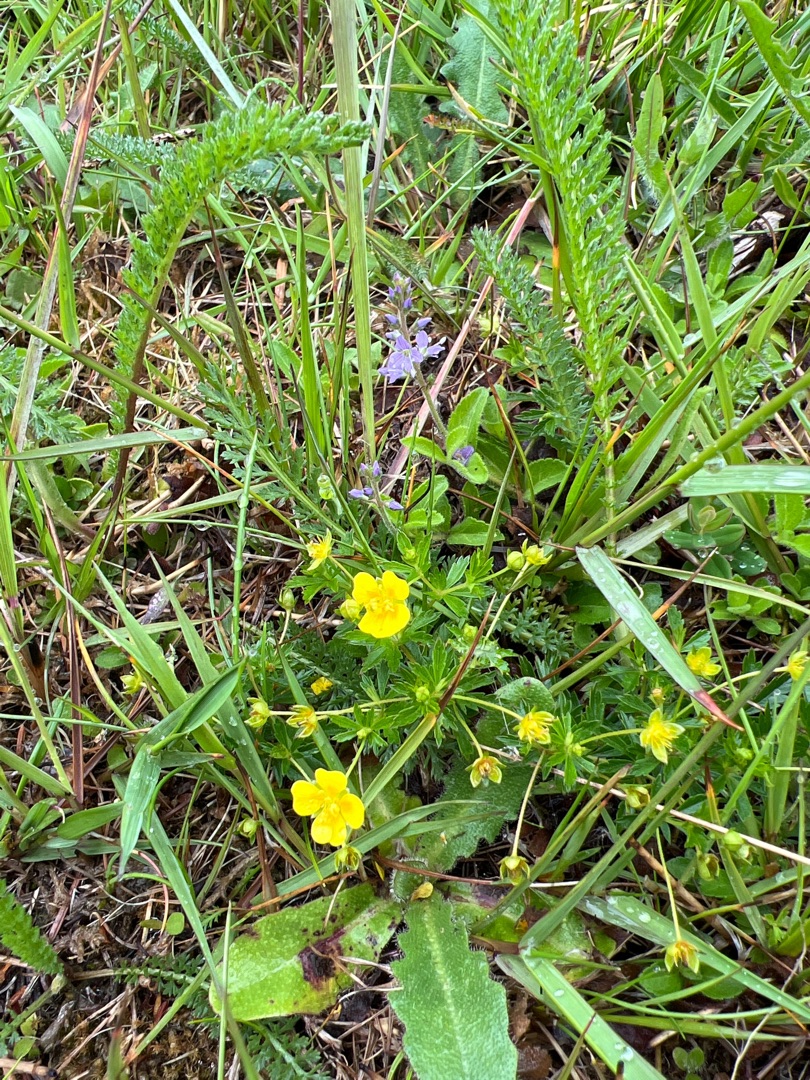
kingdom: Plantae
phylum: Tracheophyta
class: Magnoliopsida
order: Rosales
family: Rosaceae
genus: Potentilla
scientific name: Potentilla erecta
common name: Tormentil
